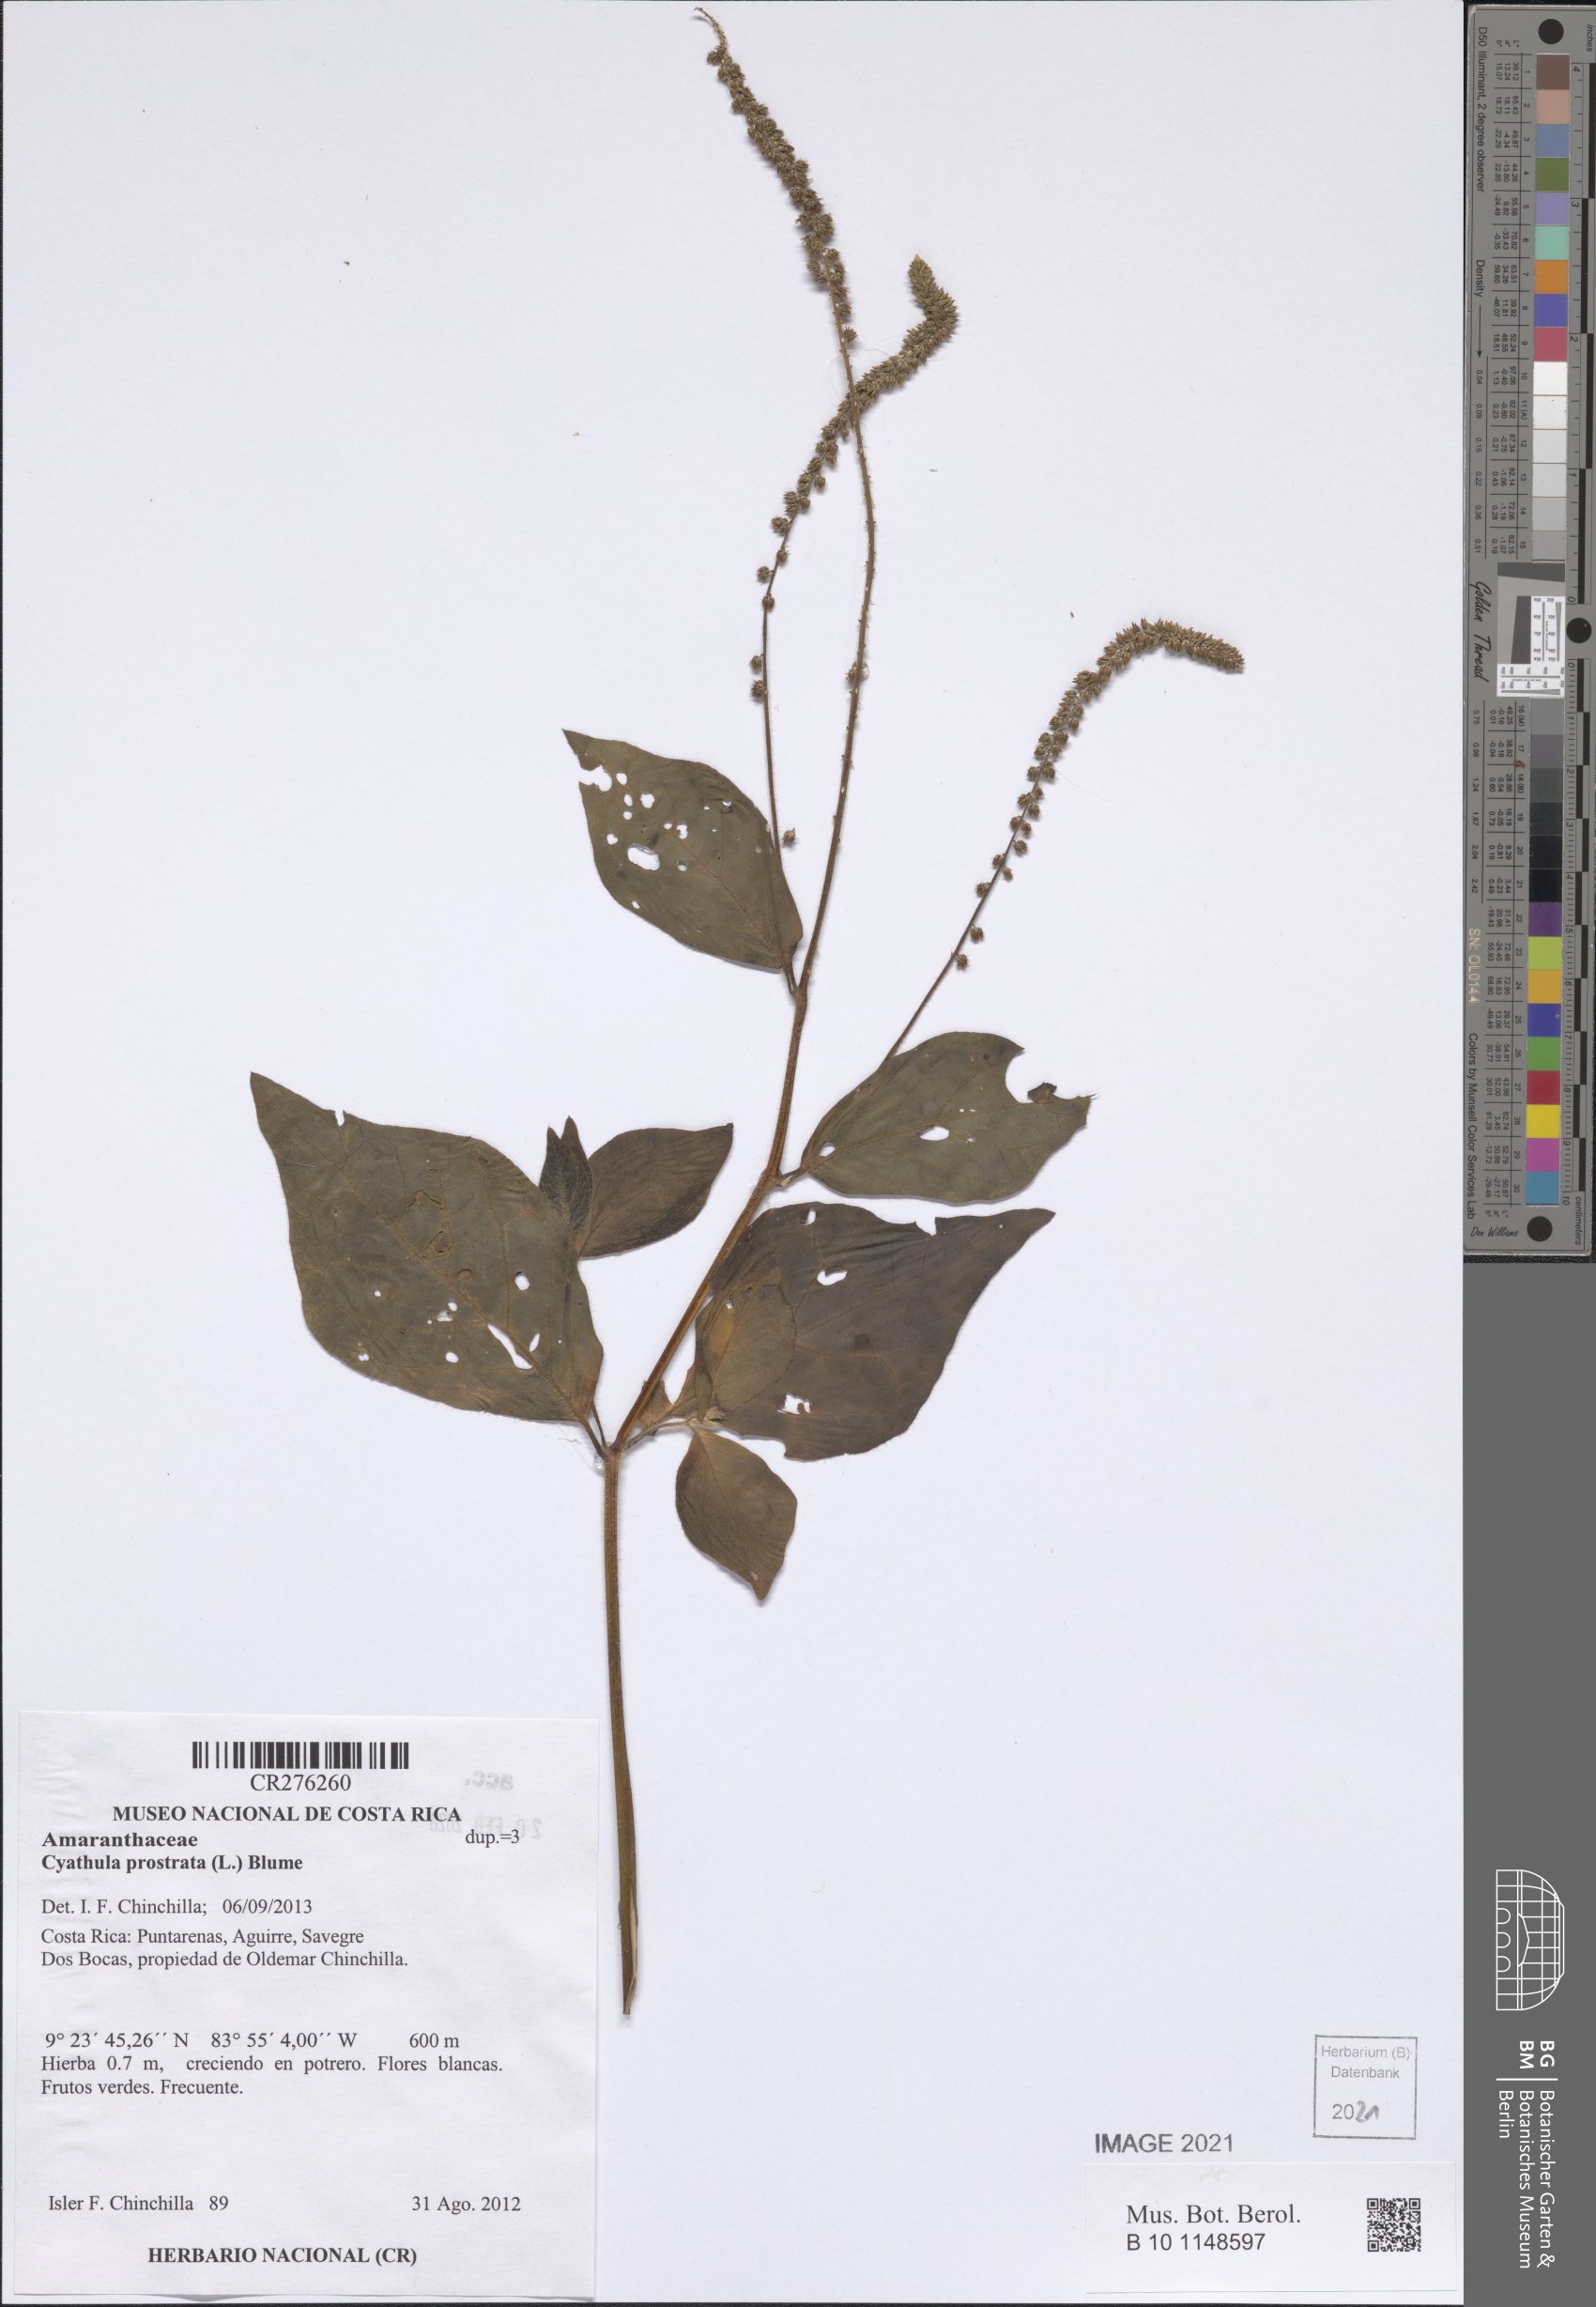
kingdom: Plantae
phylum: Tracheophyta
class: Magnoliopsida
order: Caryophyllales
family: Amaranthaceae
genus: Cyathula
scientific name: Cyathula prostrata
